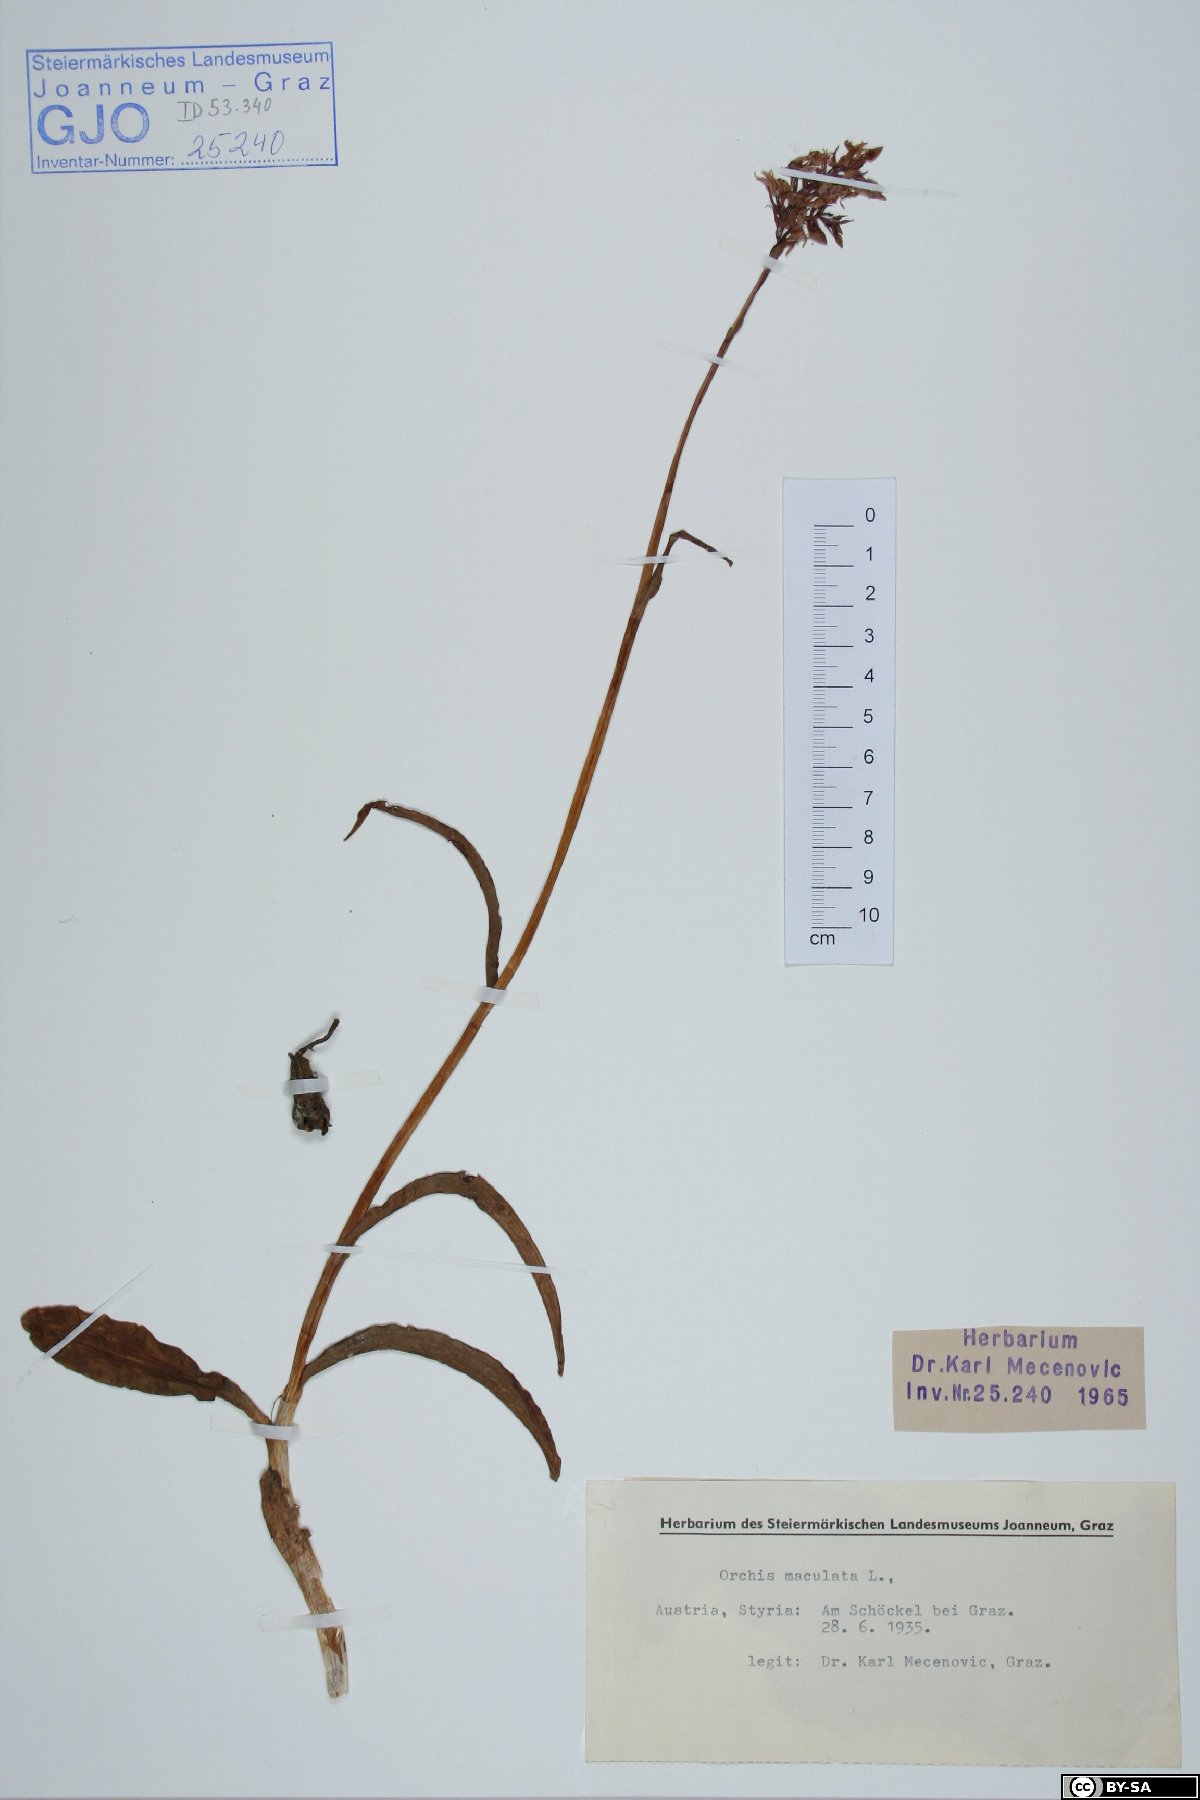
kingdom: Plantae
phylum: Tracheophyta
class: Liliopsida
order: Asparagales
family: Orchidaceae
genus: Dactylorhiza
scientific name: Dactylorhiza maculata
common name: Heath spotted-orchid
